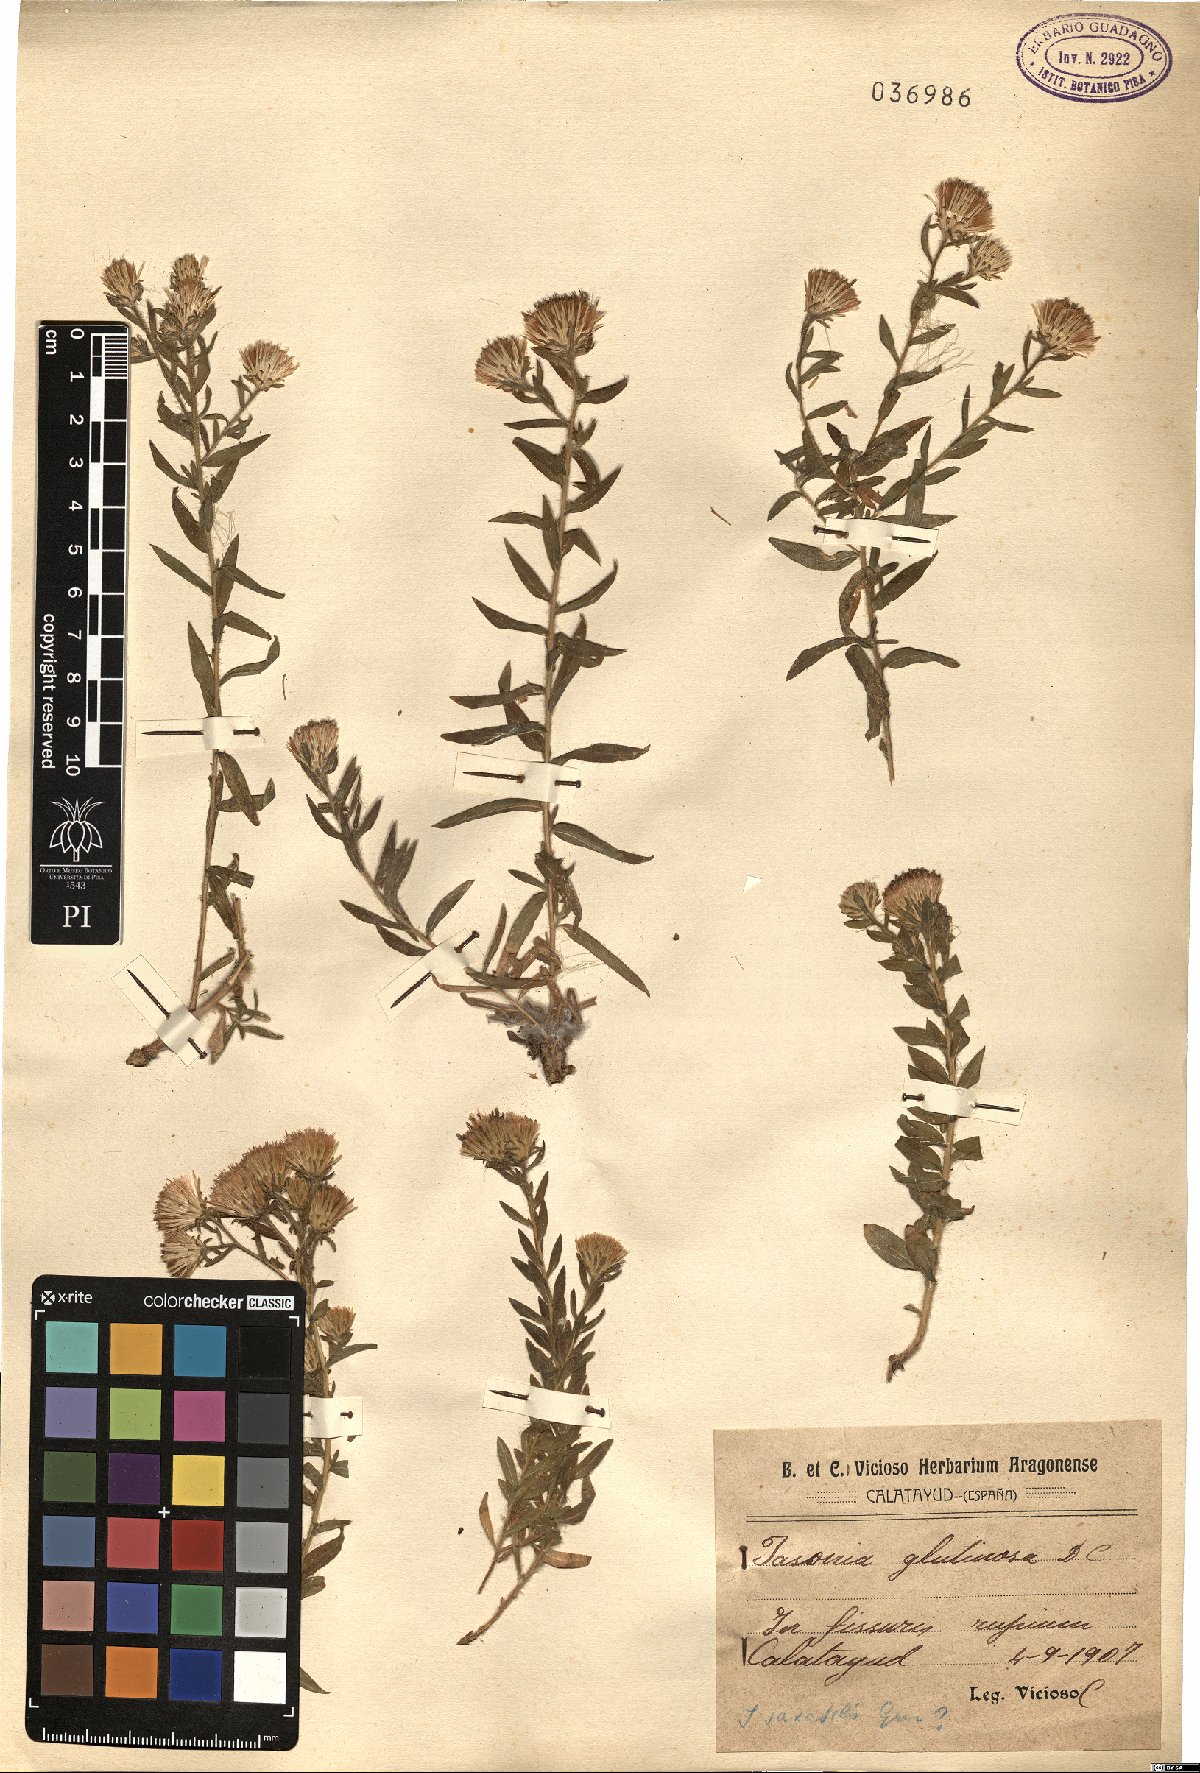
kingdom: Plantae
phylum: Tracheophyta
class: Magnoliopsida
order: Asterales
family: Asteraceae
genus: Chiliadenus
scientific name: Chiliadenus glutinosus
